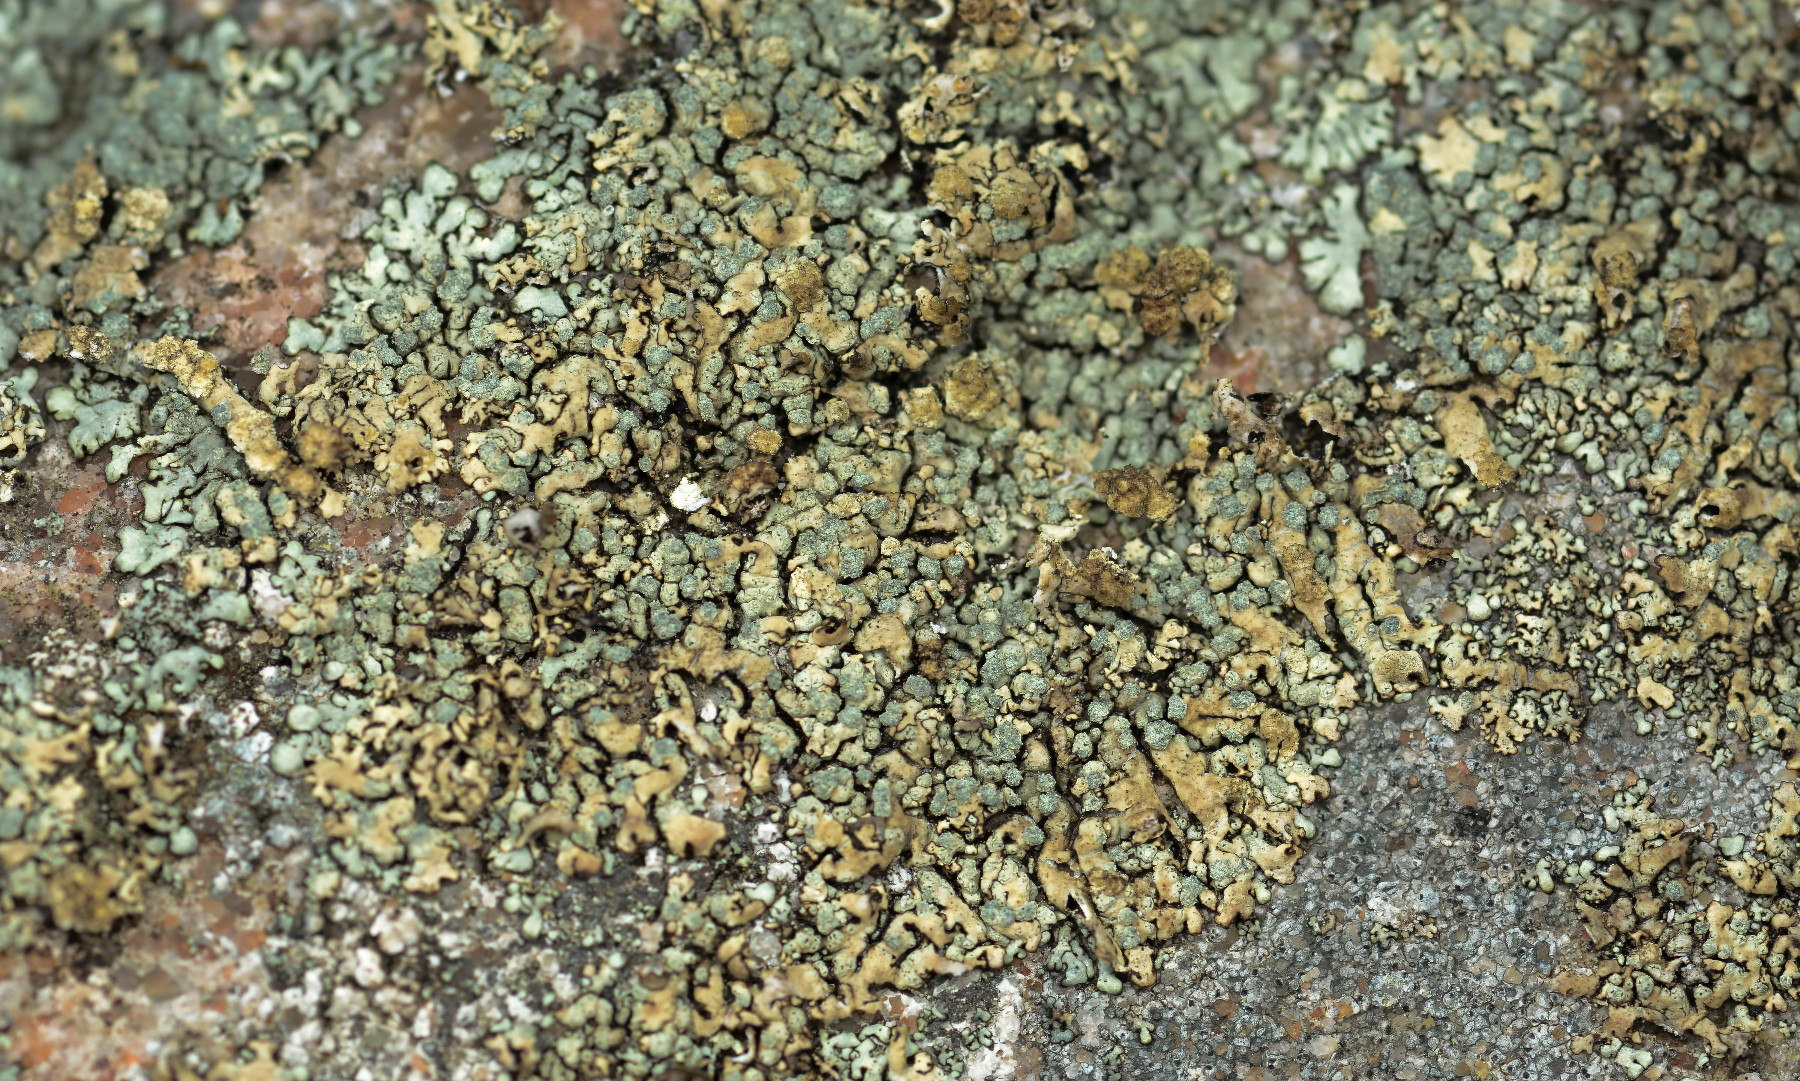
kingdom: Fungi
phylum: Ascomycota
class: Lecanoromycetes
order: Lecanorales
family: Parmeliaceae
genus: Xanthoparmelia
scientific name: Xanthoparmelia mougeotii
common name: liden skållav
